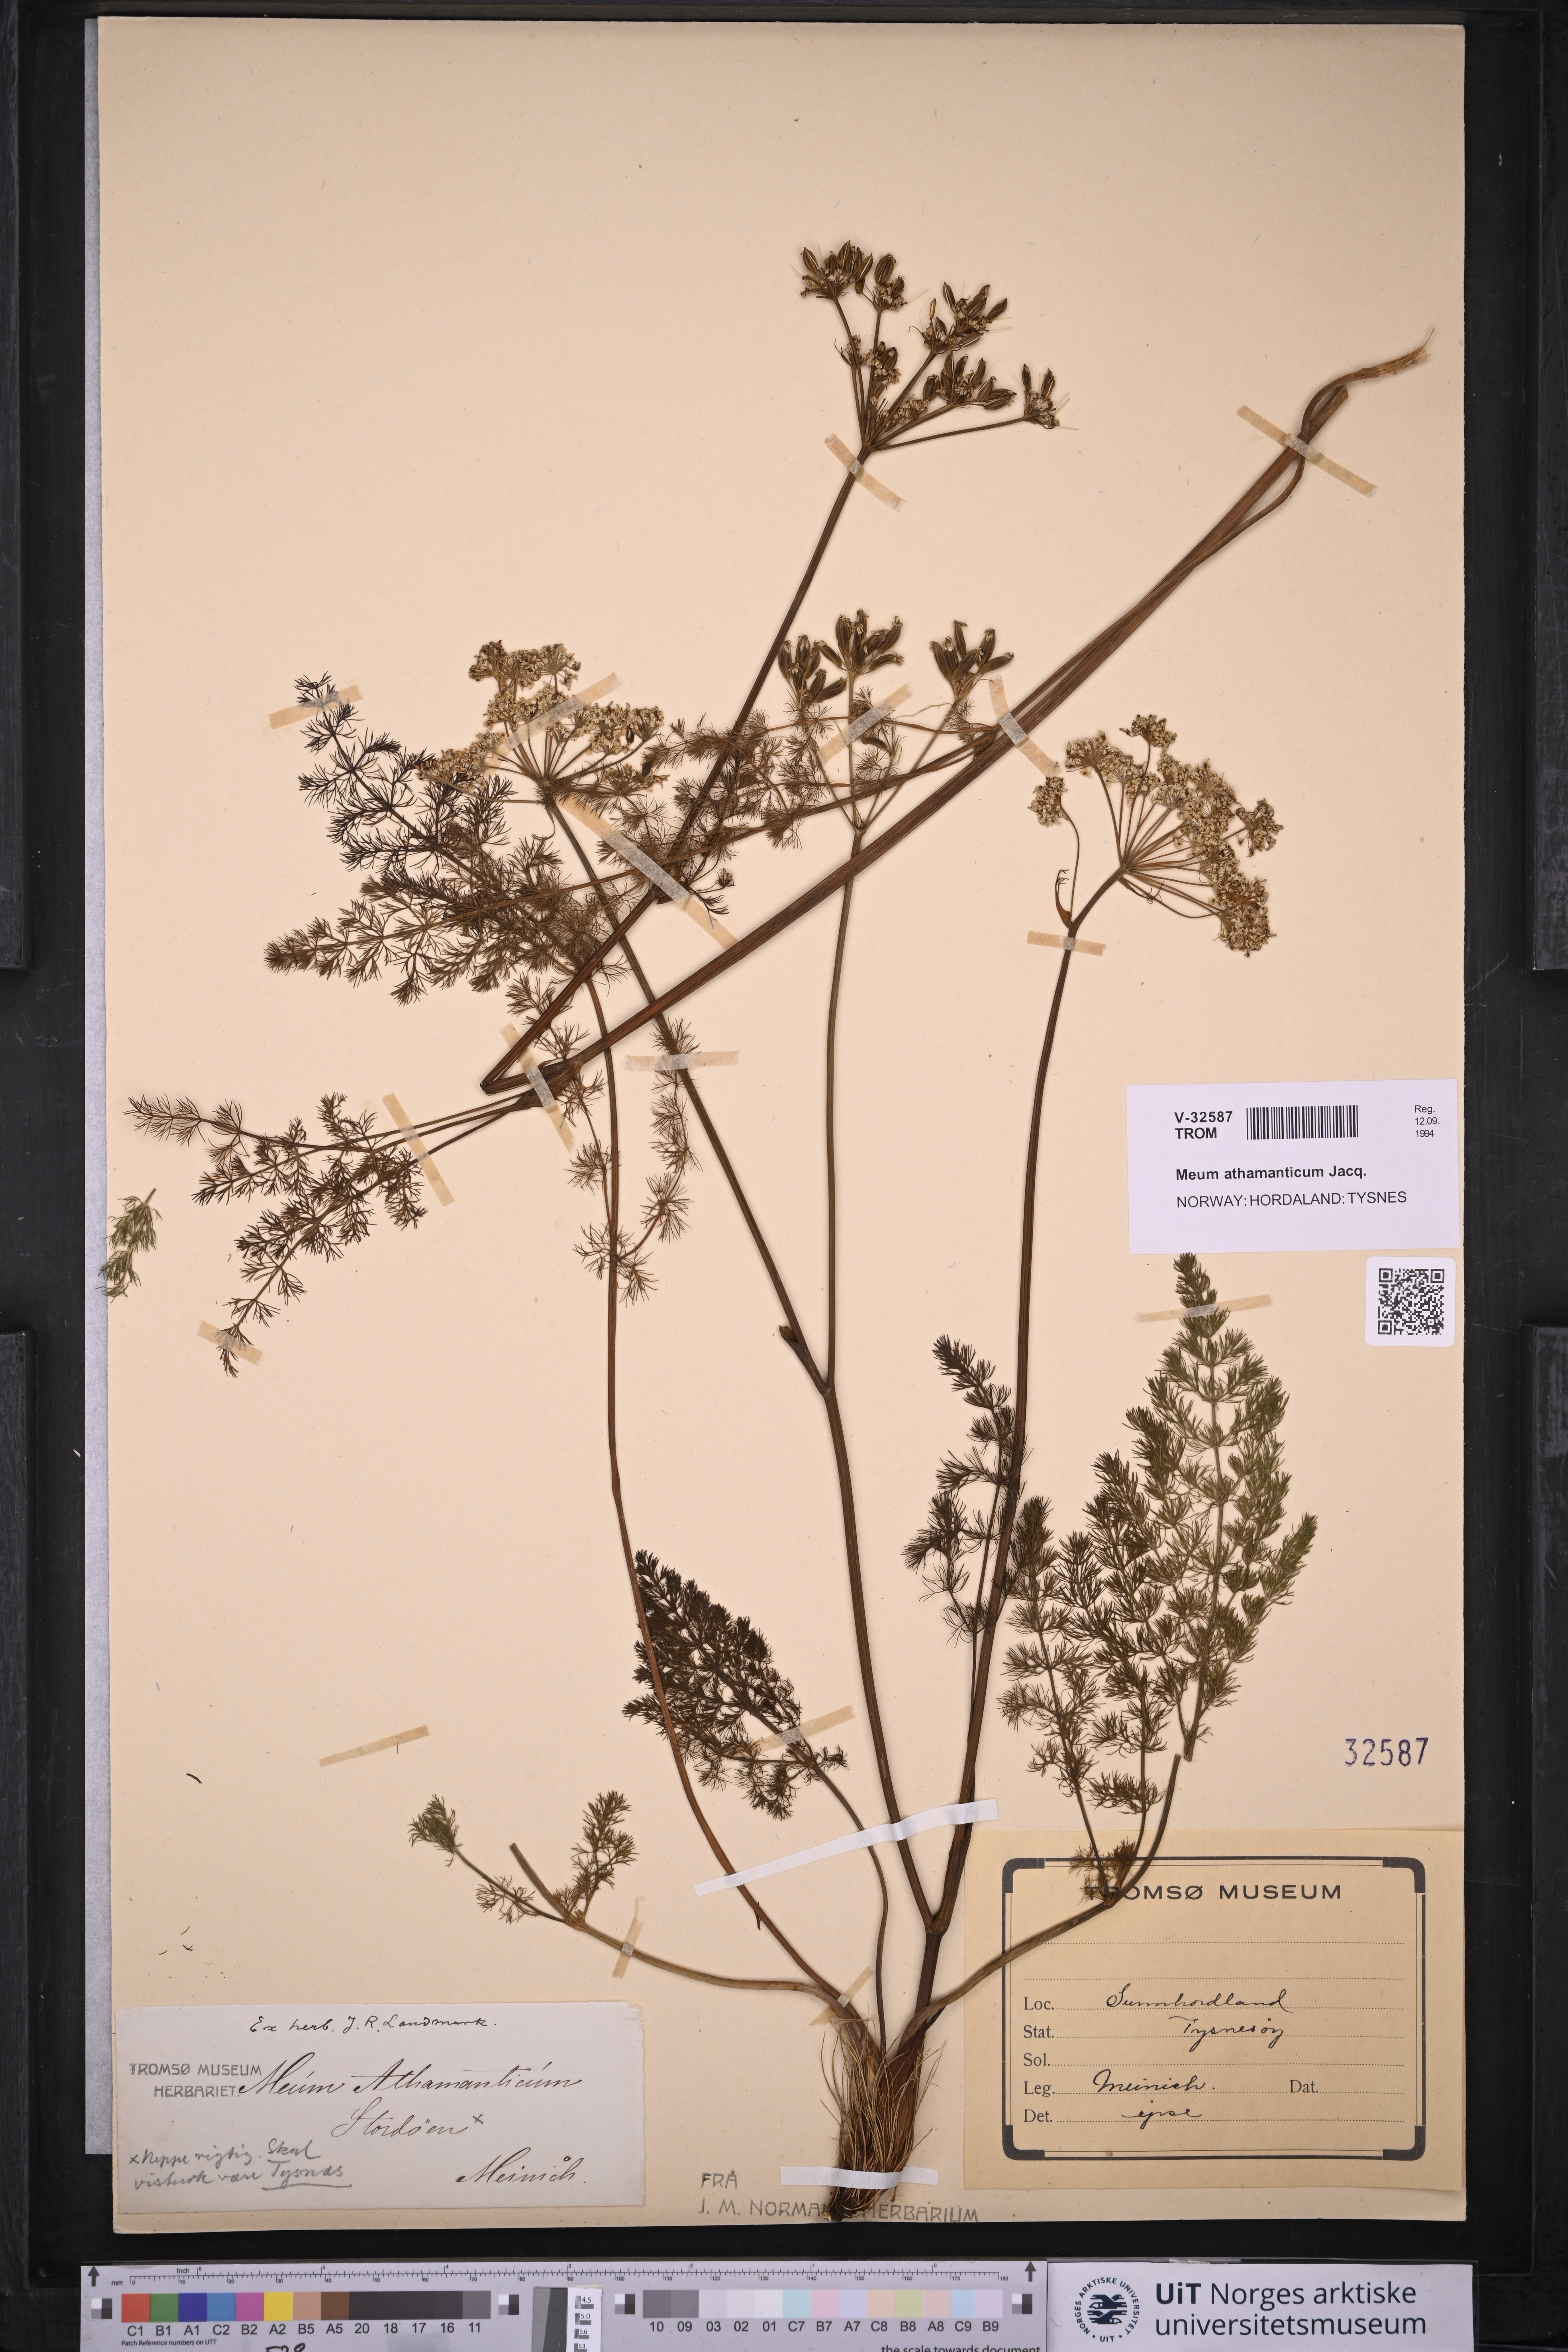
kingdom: Plantae
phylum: Tracheophyta
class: Magnoliopsida
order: Apiales
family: Apiaceae
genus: Meum
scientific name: Meum athamanticum
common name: Spignel
